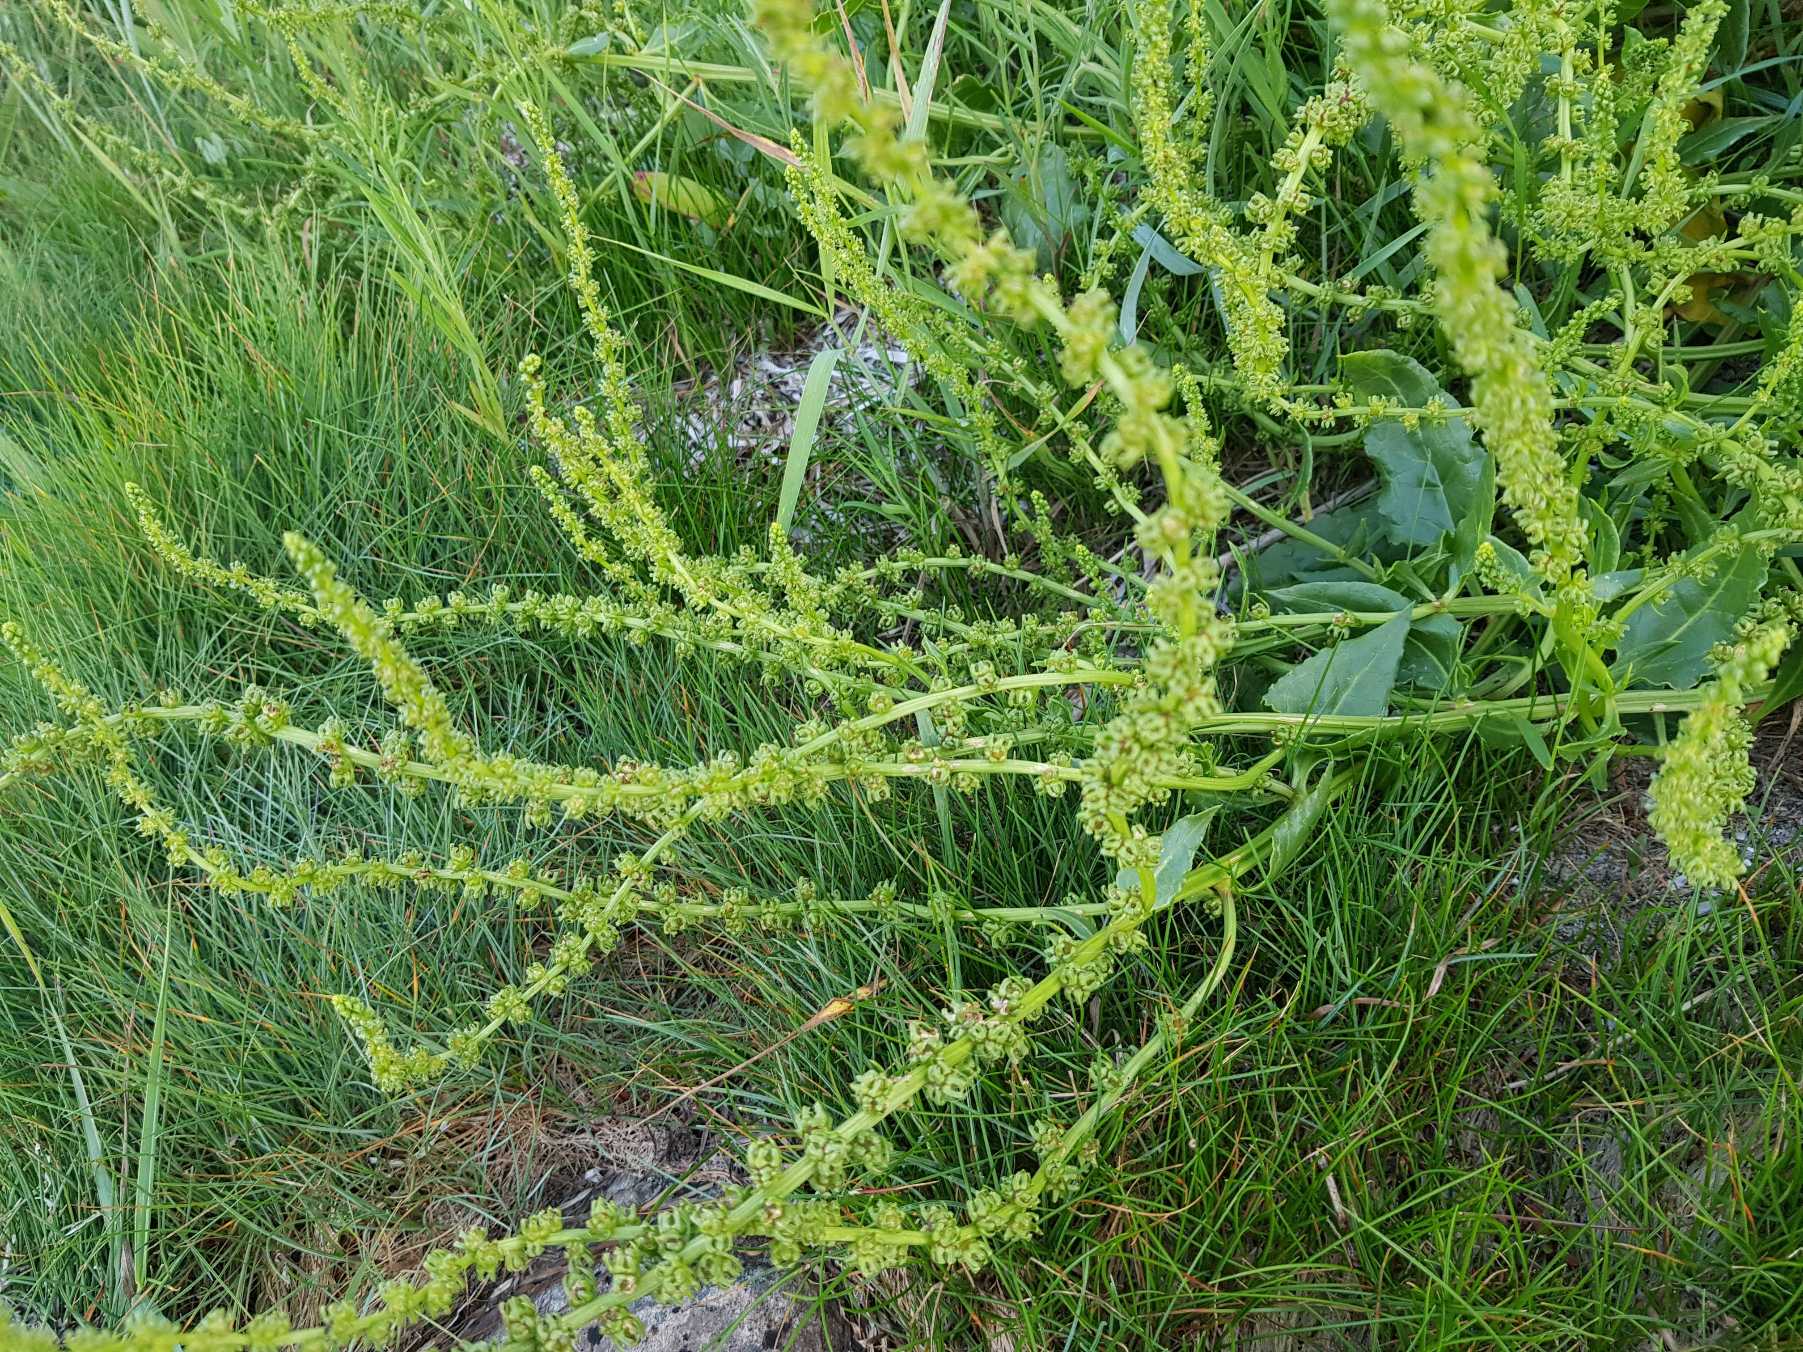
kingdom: Plantae
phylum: Tracheophyta
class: Magnoliopsida
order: Caryophyllales
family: Amaranthaceae
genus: Beta
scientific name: Beta maritima
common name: Strand-bede
